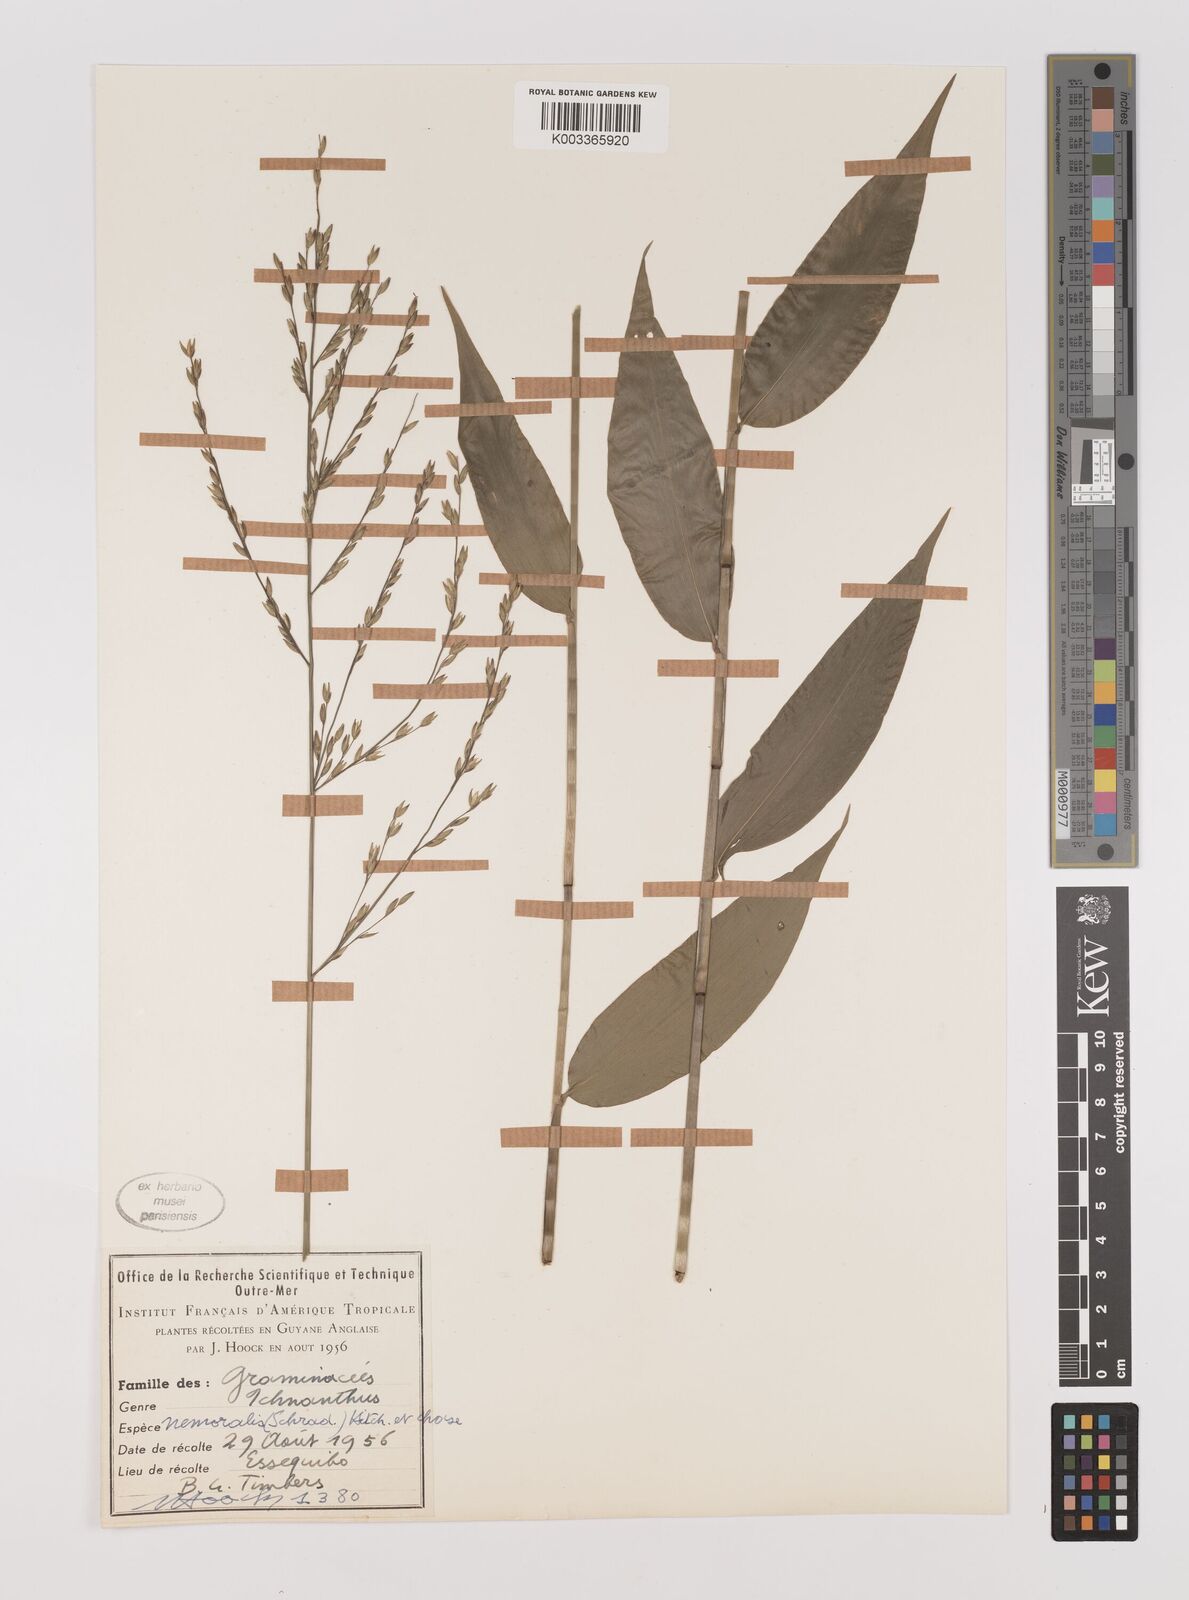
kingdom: Plantae
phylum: Tracheophyta
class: Liliopsida
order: Poales
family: Poaceae
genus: Ichnanthus
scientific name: Ichnanthus nemoralis
